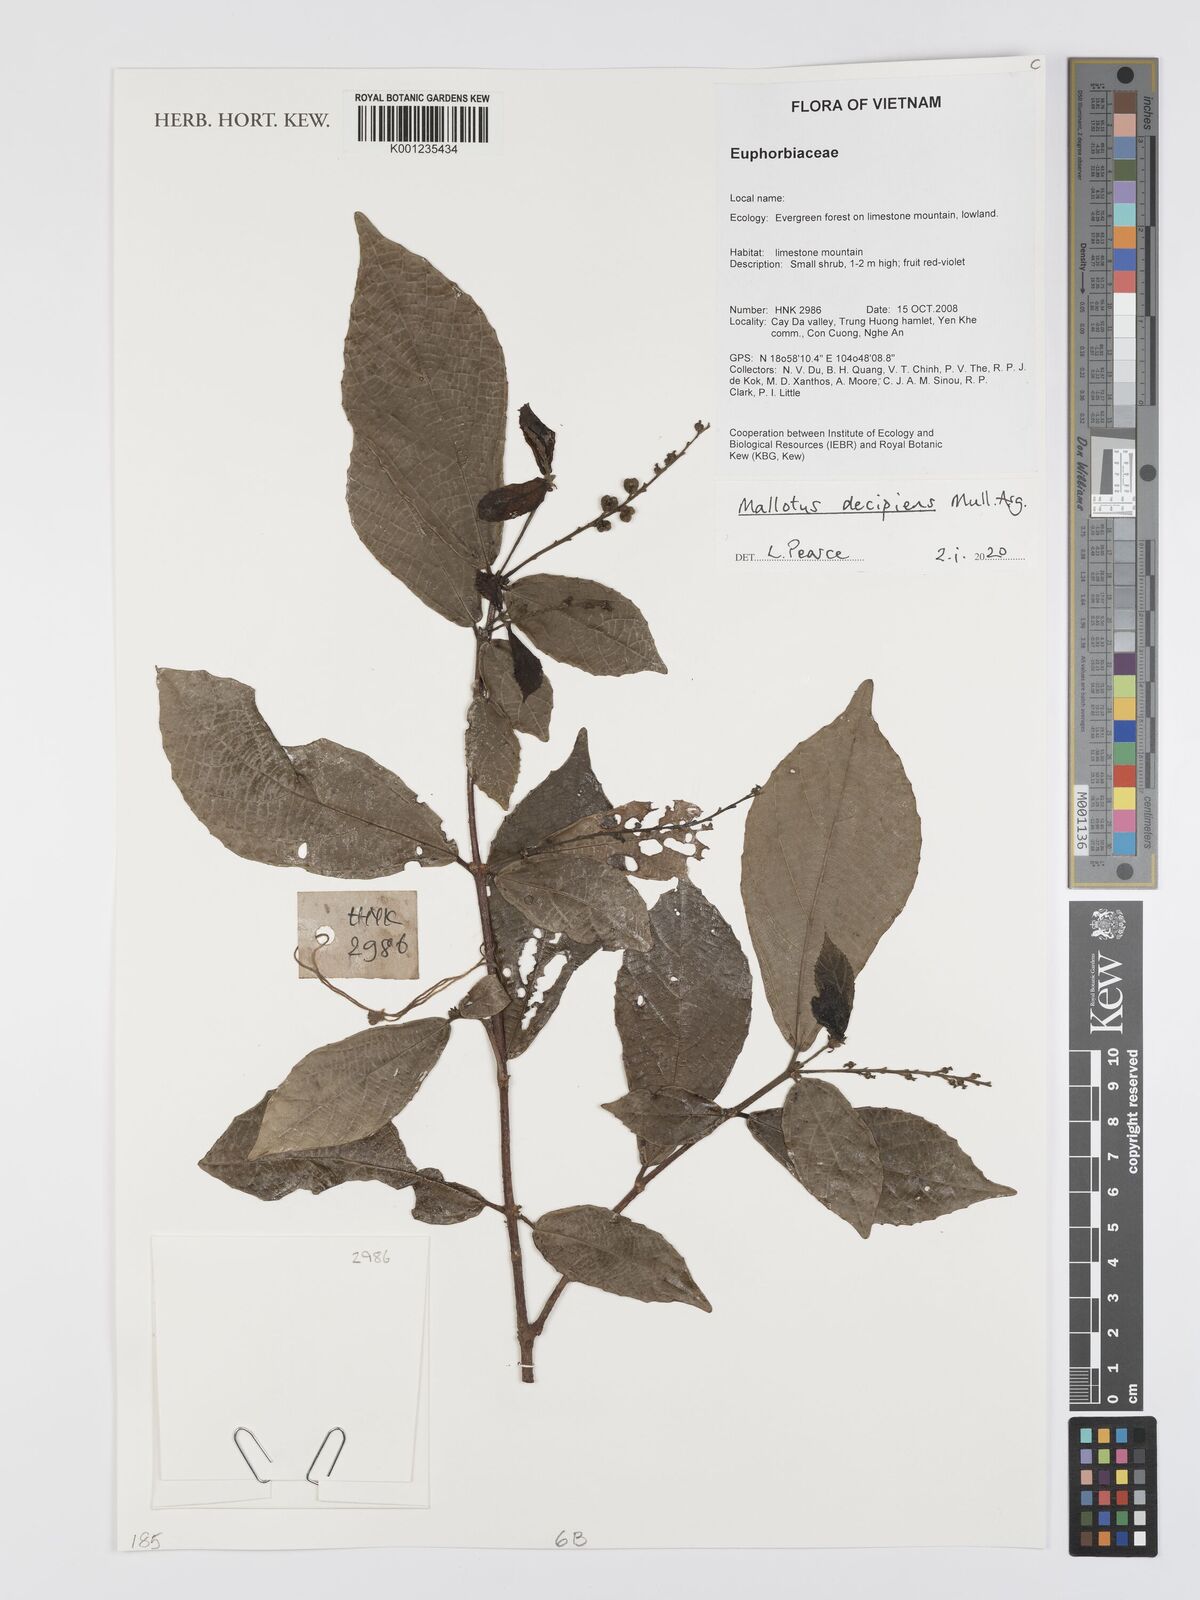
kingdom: Plantae
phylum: Tracheophyta
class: Magnoliopsida
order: Malpighiales
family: Euphorbiaceae
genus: Mallotus
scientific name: Mallotus
